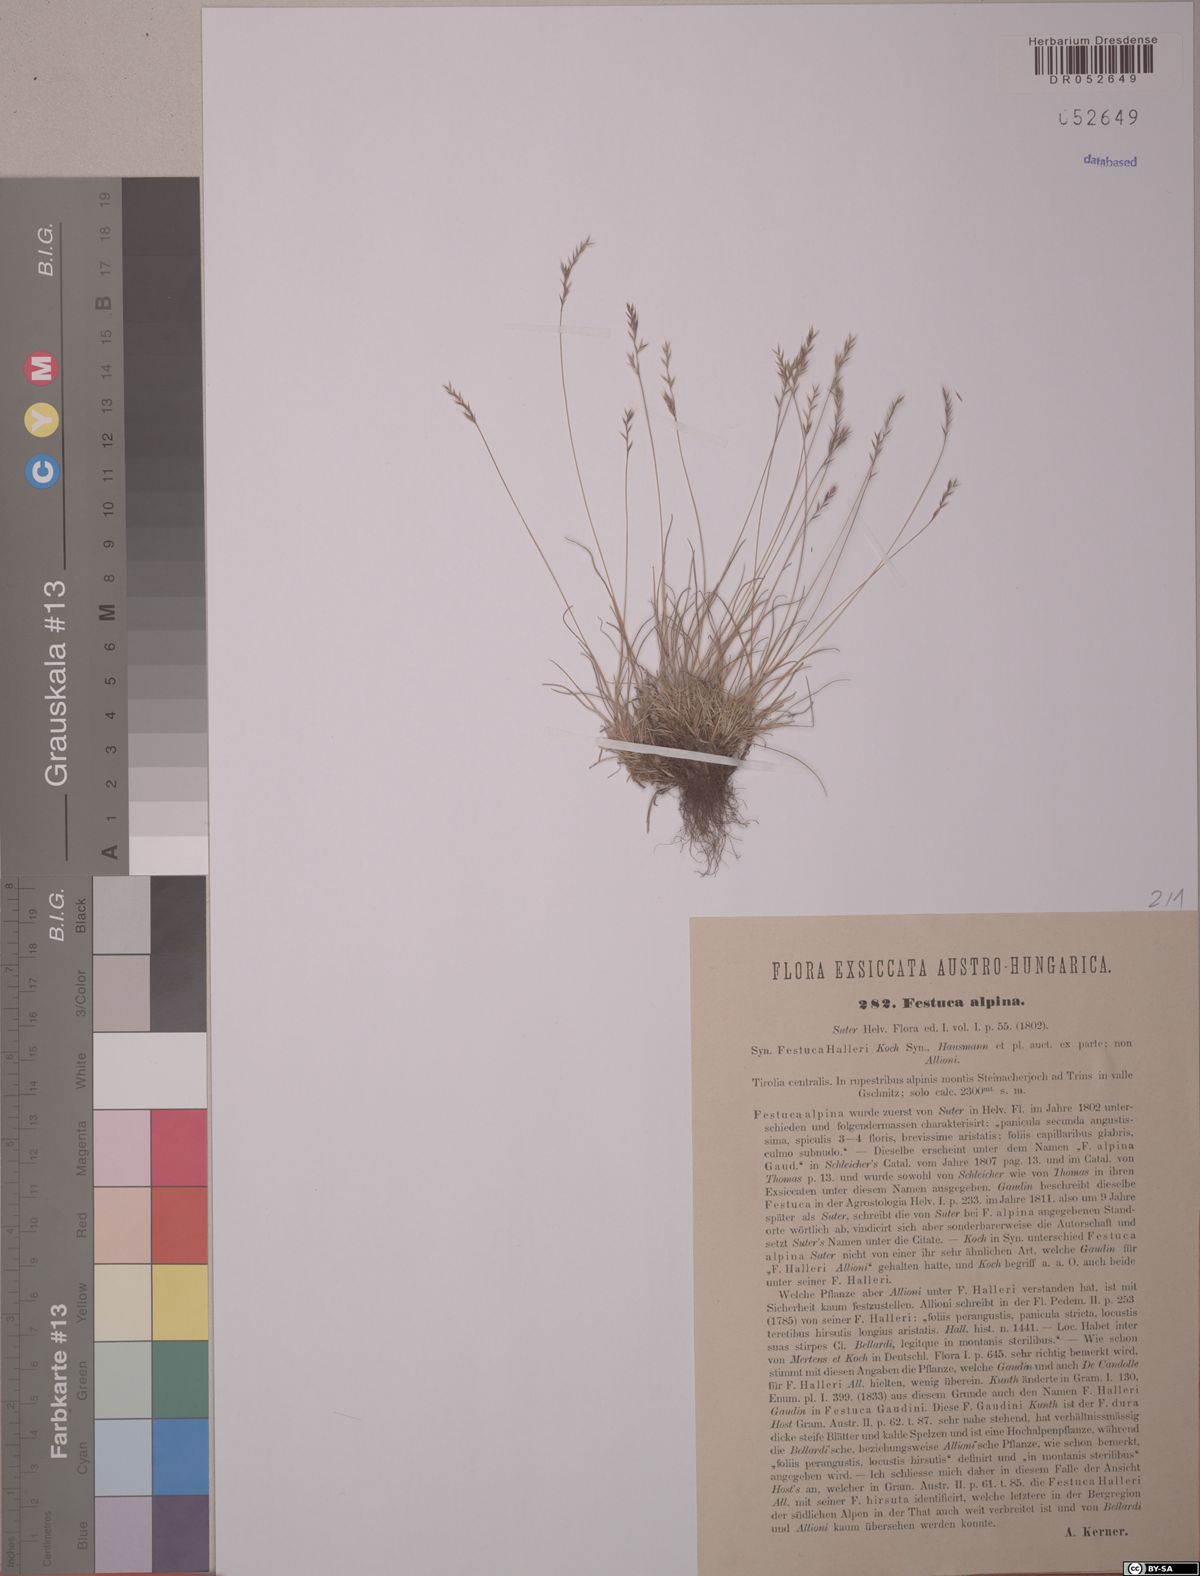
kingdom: Plantae
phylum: Tracheophyta
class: Liliopsida
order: Poales
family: Poaceae
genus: Festuca
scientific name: Festuca alpina
